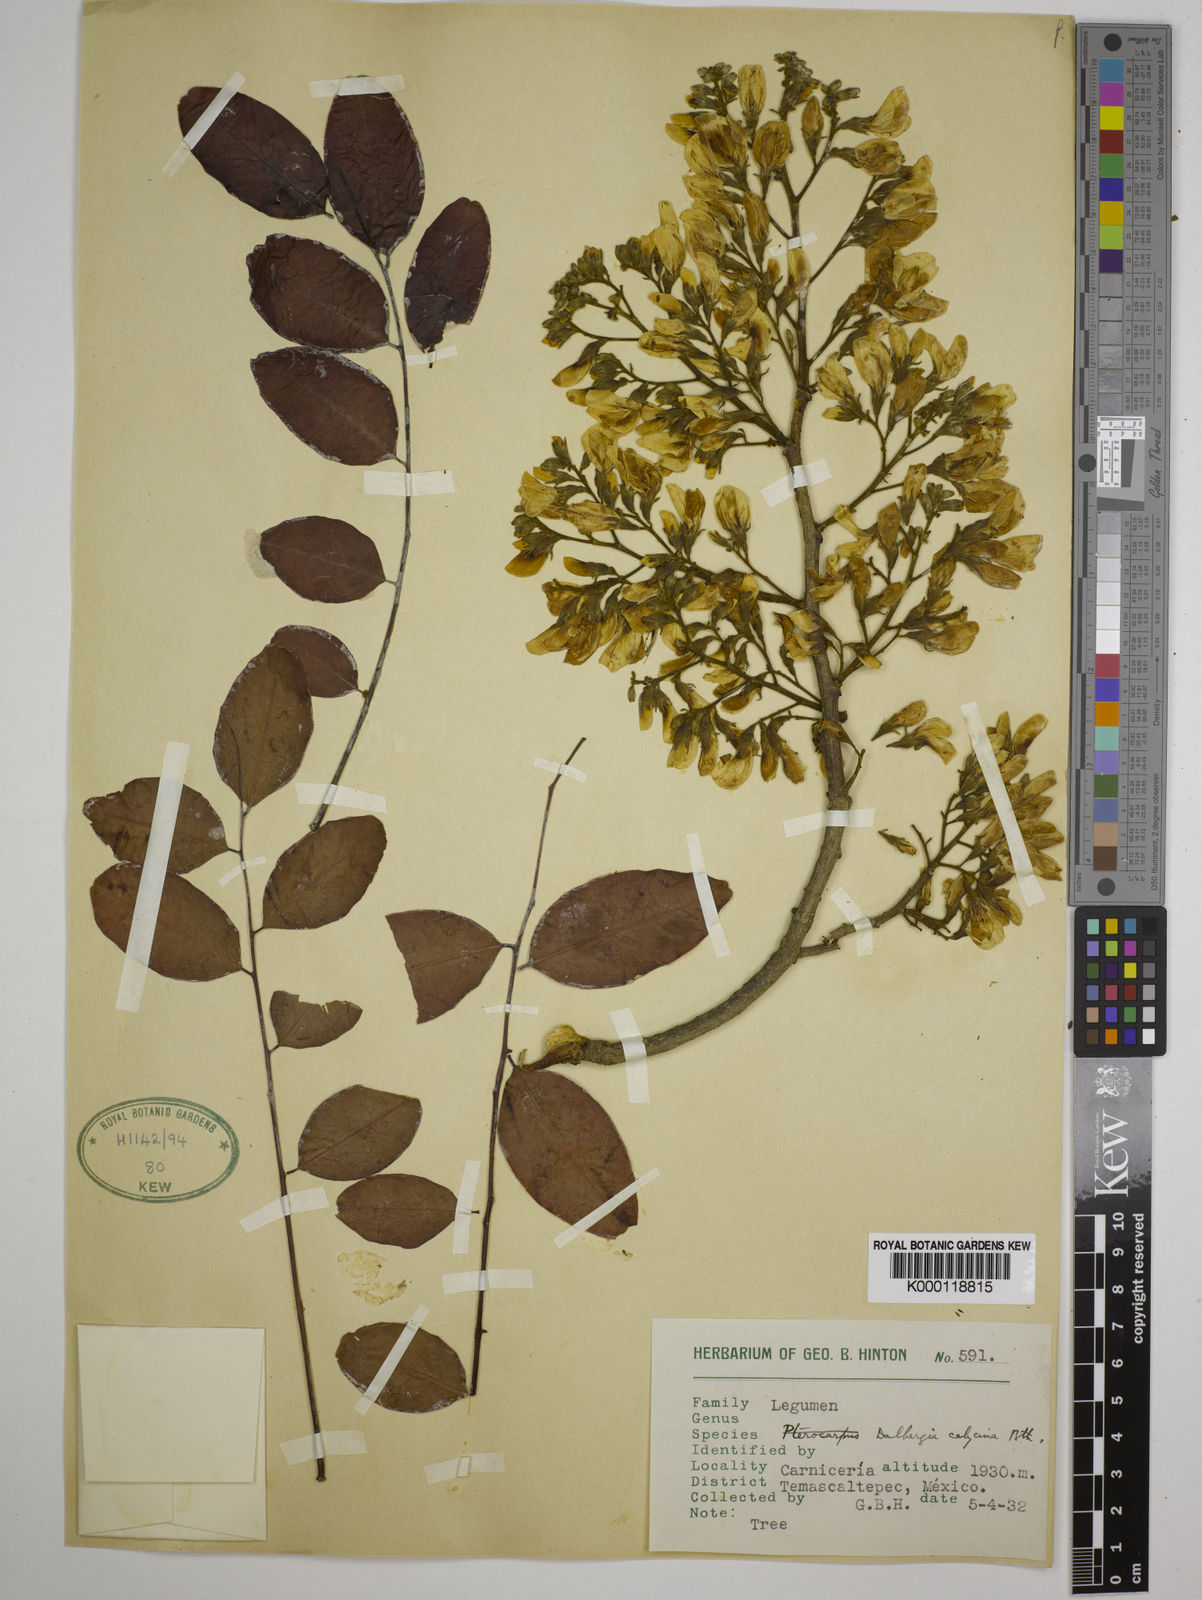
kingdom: Plantae
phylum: Tracheophyta
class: Magnoliopsida
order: Fabales
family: Fabaceae
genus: Dalbergia
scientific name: Dalbergia calycina
